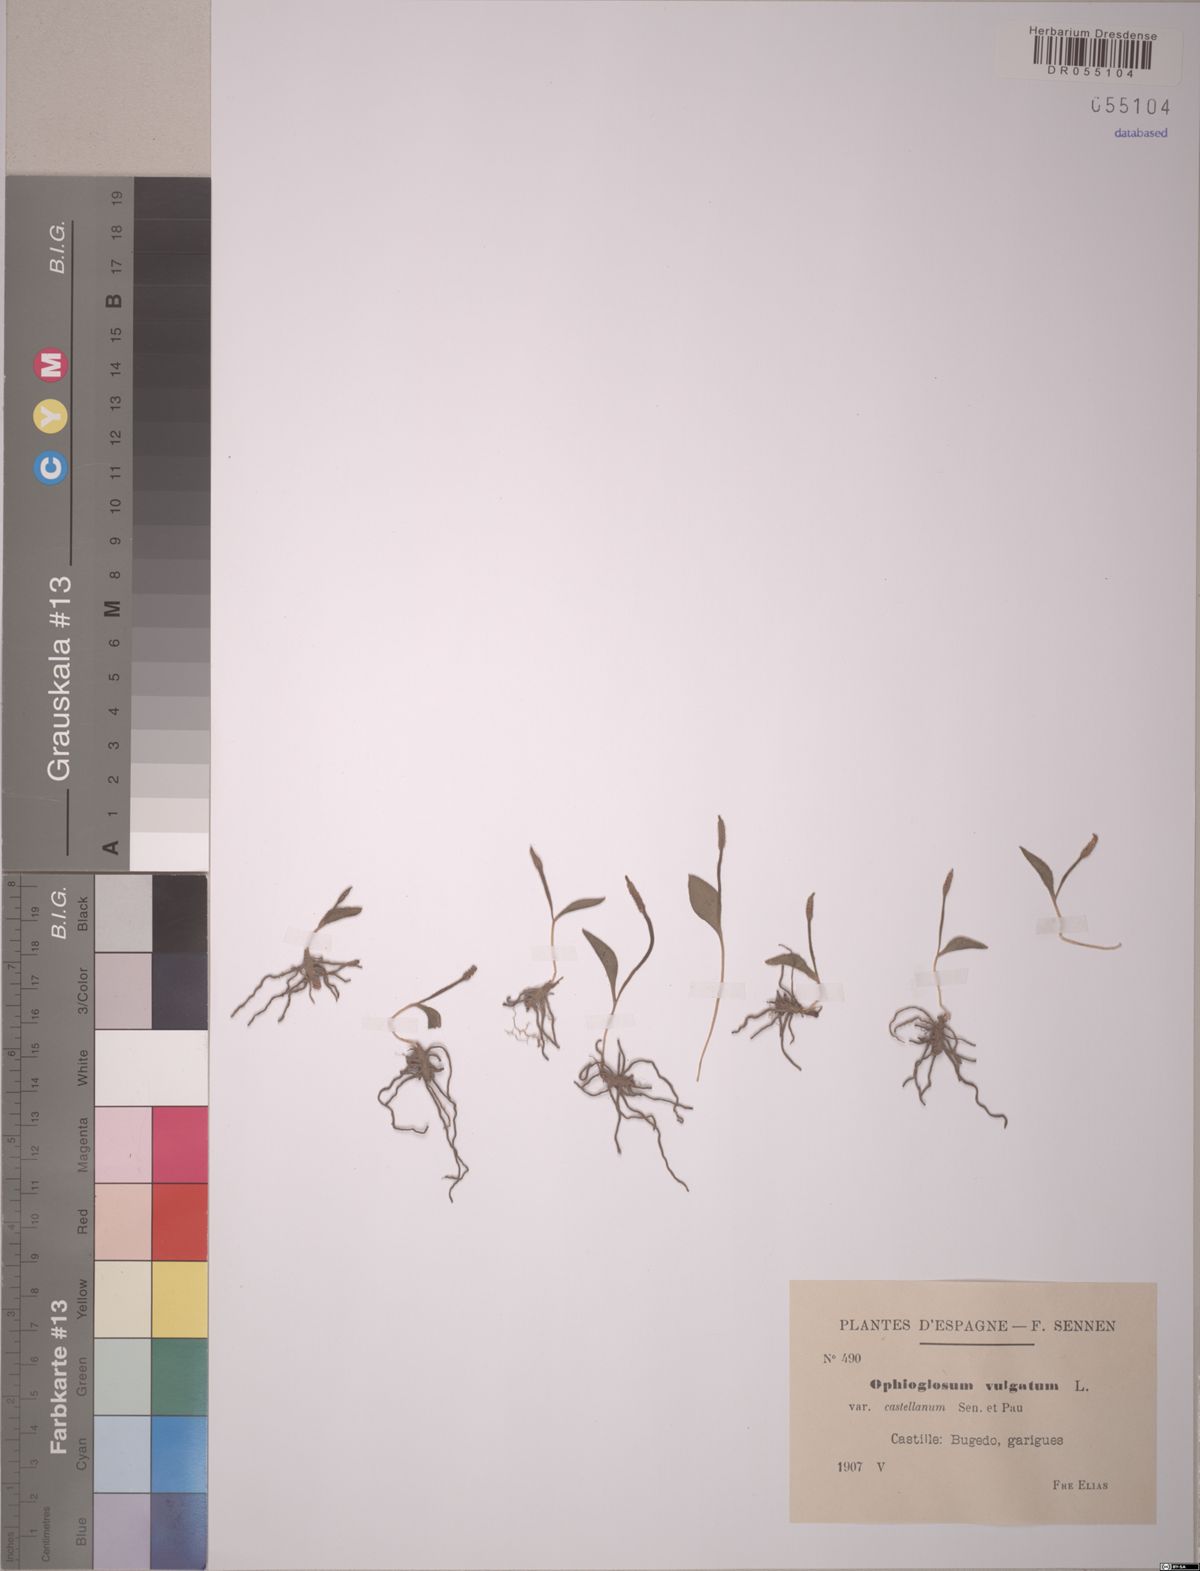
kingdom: Plantae
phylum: Tracheophyta
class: Polypodiopsida
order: Ophioglossales
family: Ophioglossaceae
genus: Ophioglossum
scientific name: Ophioglossum vulgatum
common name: Adder's-tongue
